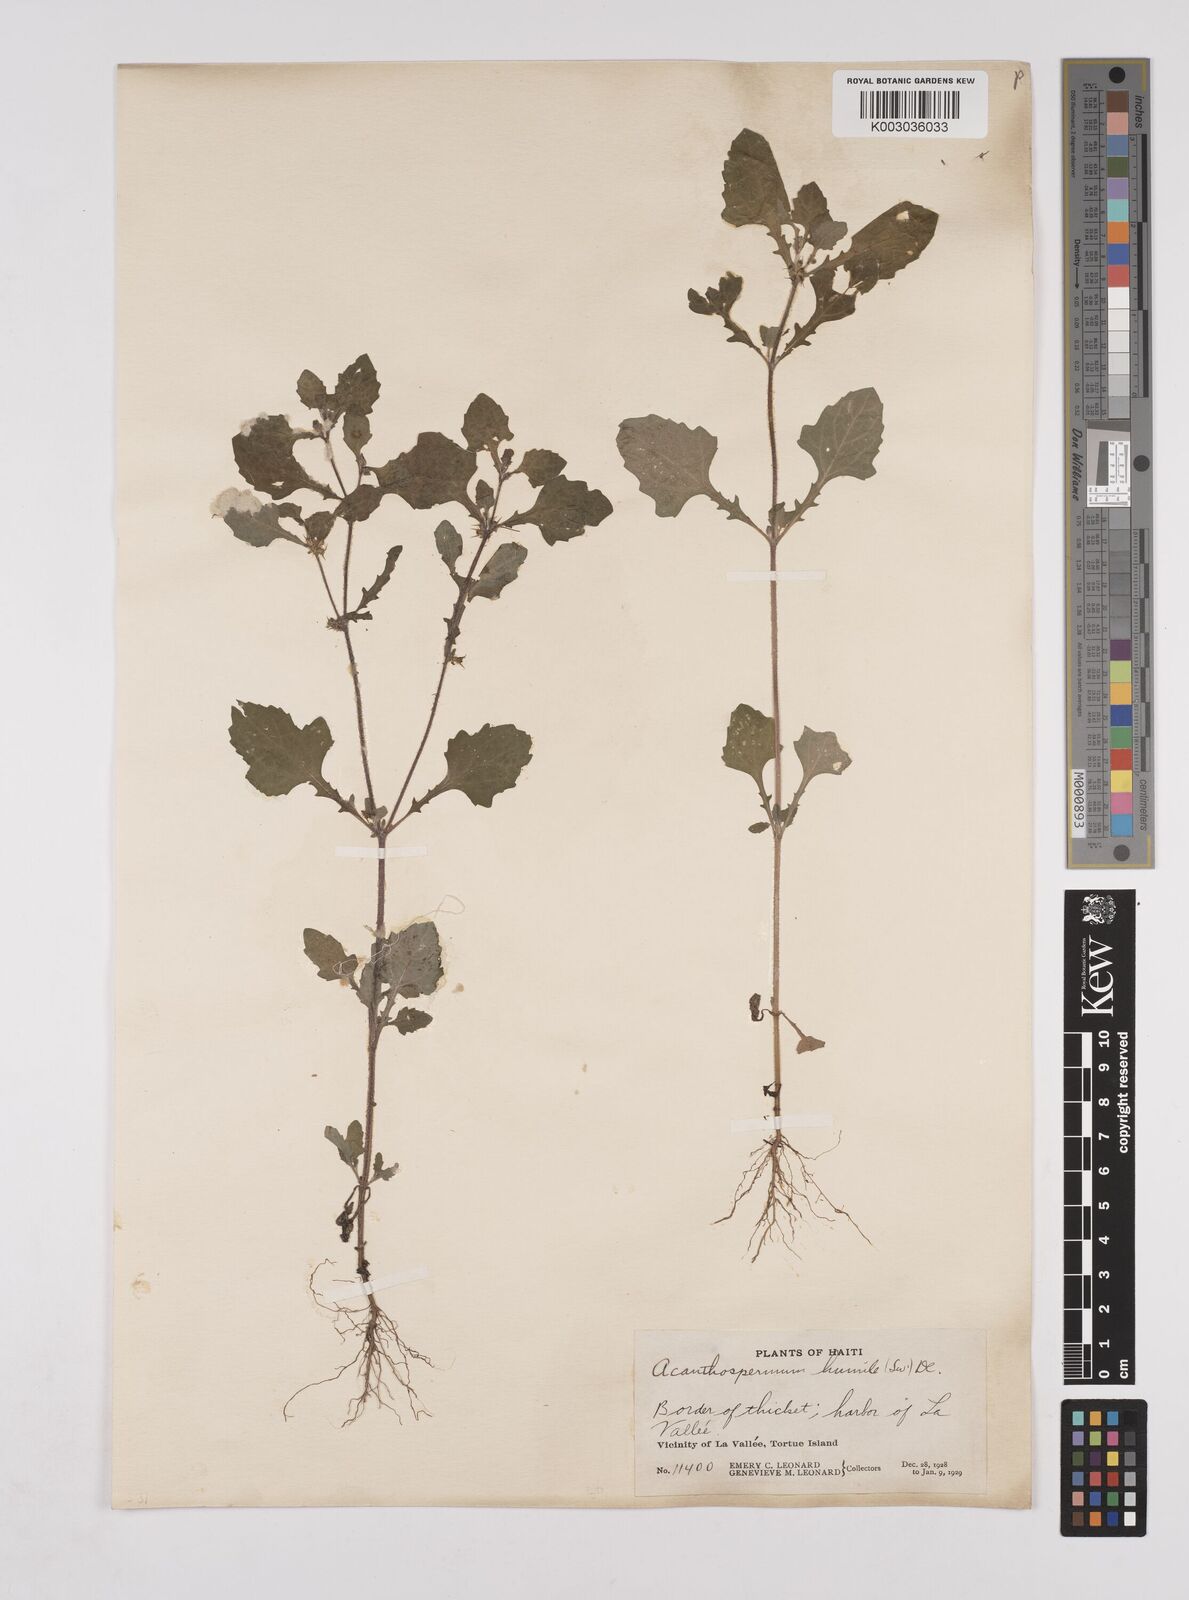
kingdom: Plantae
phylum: Tracheophyta
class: Magnoliopsida
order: Asterales
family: Asteraceae
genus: Acanthospermum
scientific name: Acanthospermum humile
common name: Low starbur
